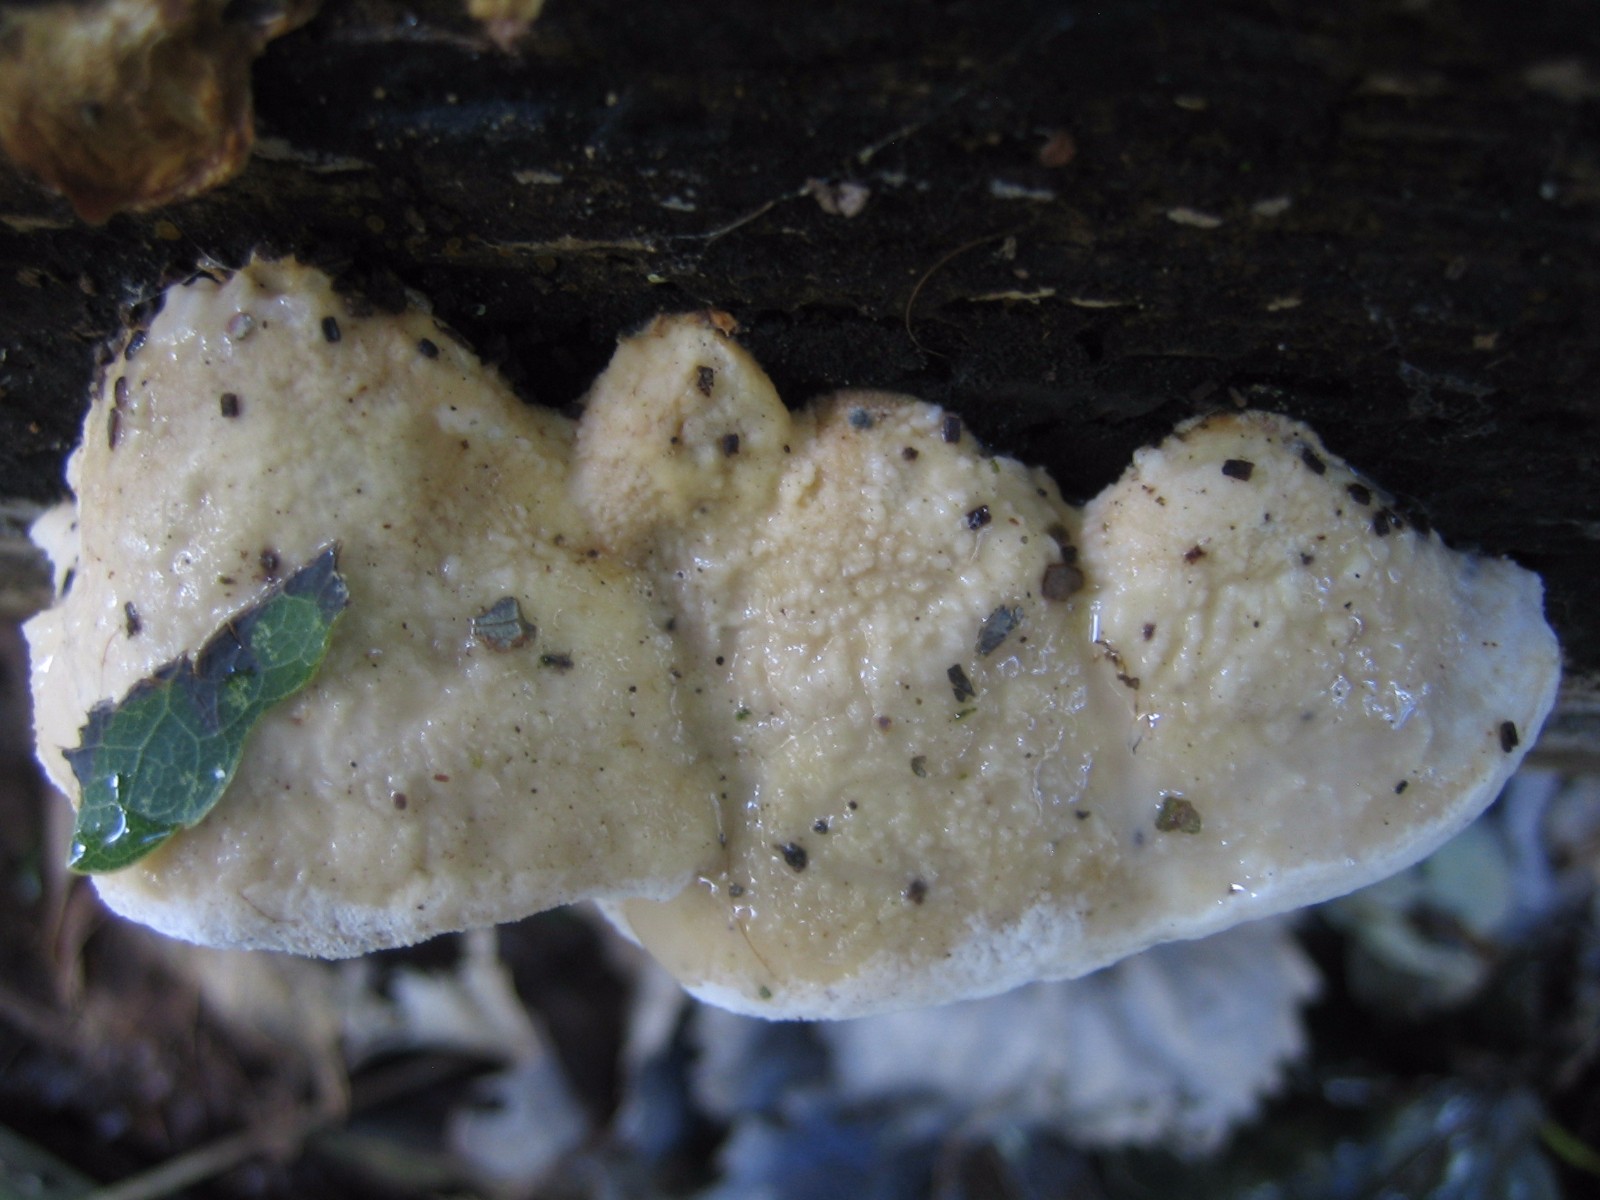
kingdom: Fungi
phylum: Basidiomycota
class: Agaricomycetes
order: Polyporales
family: Incrustoporiaceae
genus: Tyromyces
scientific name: Tyromyces lacteus
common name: mælkehvid kødporesvamp
